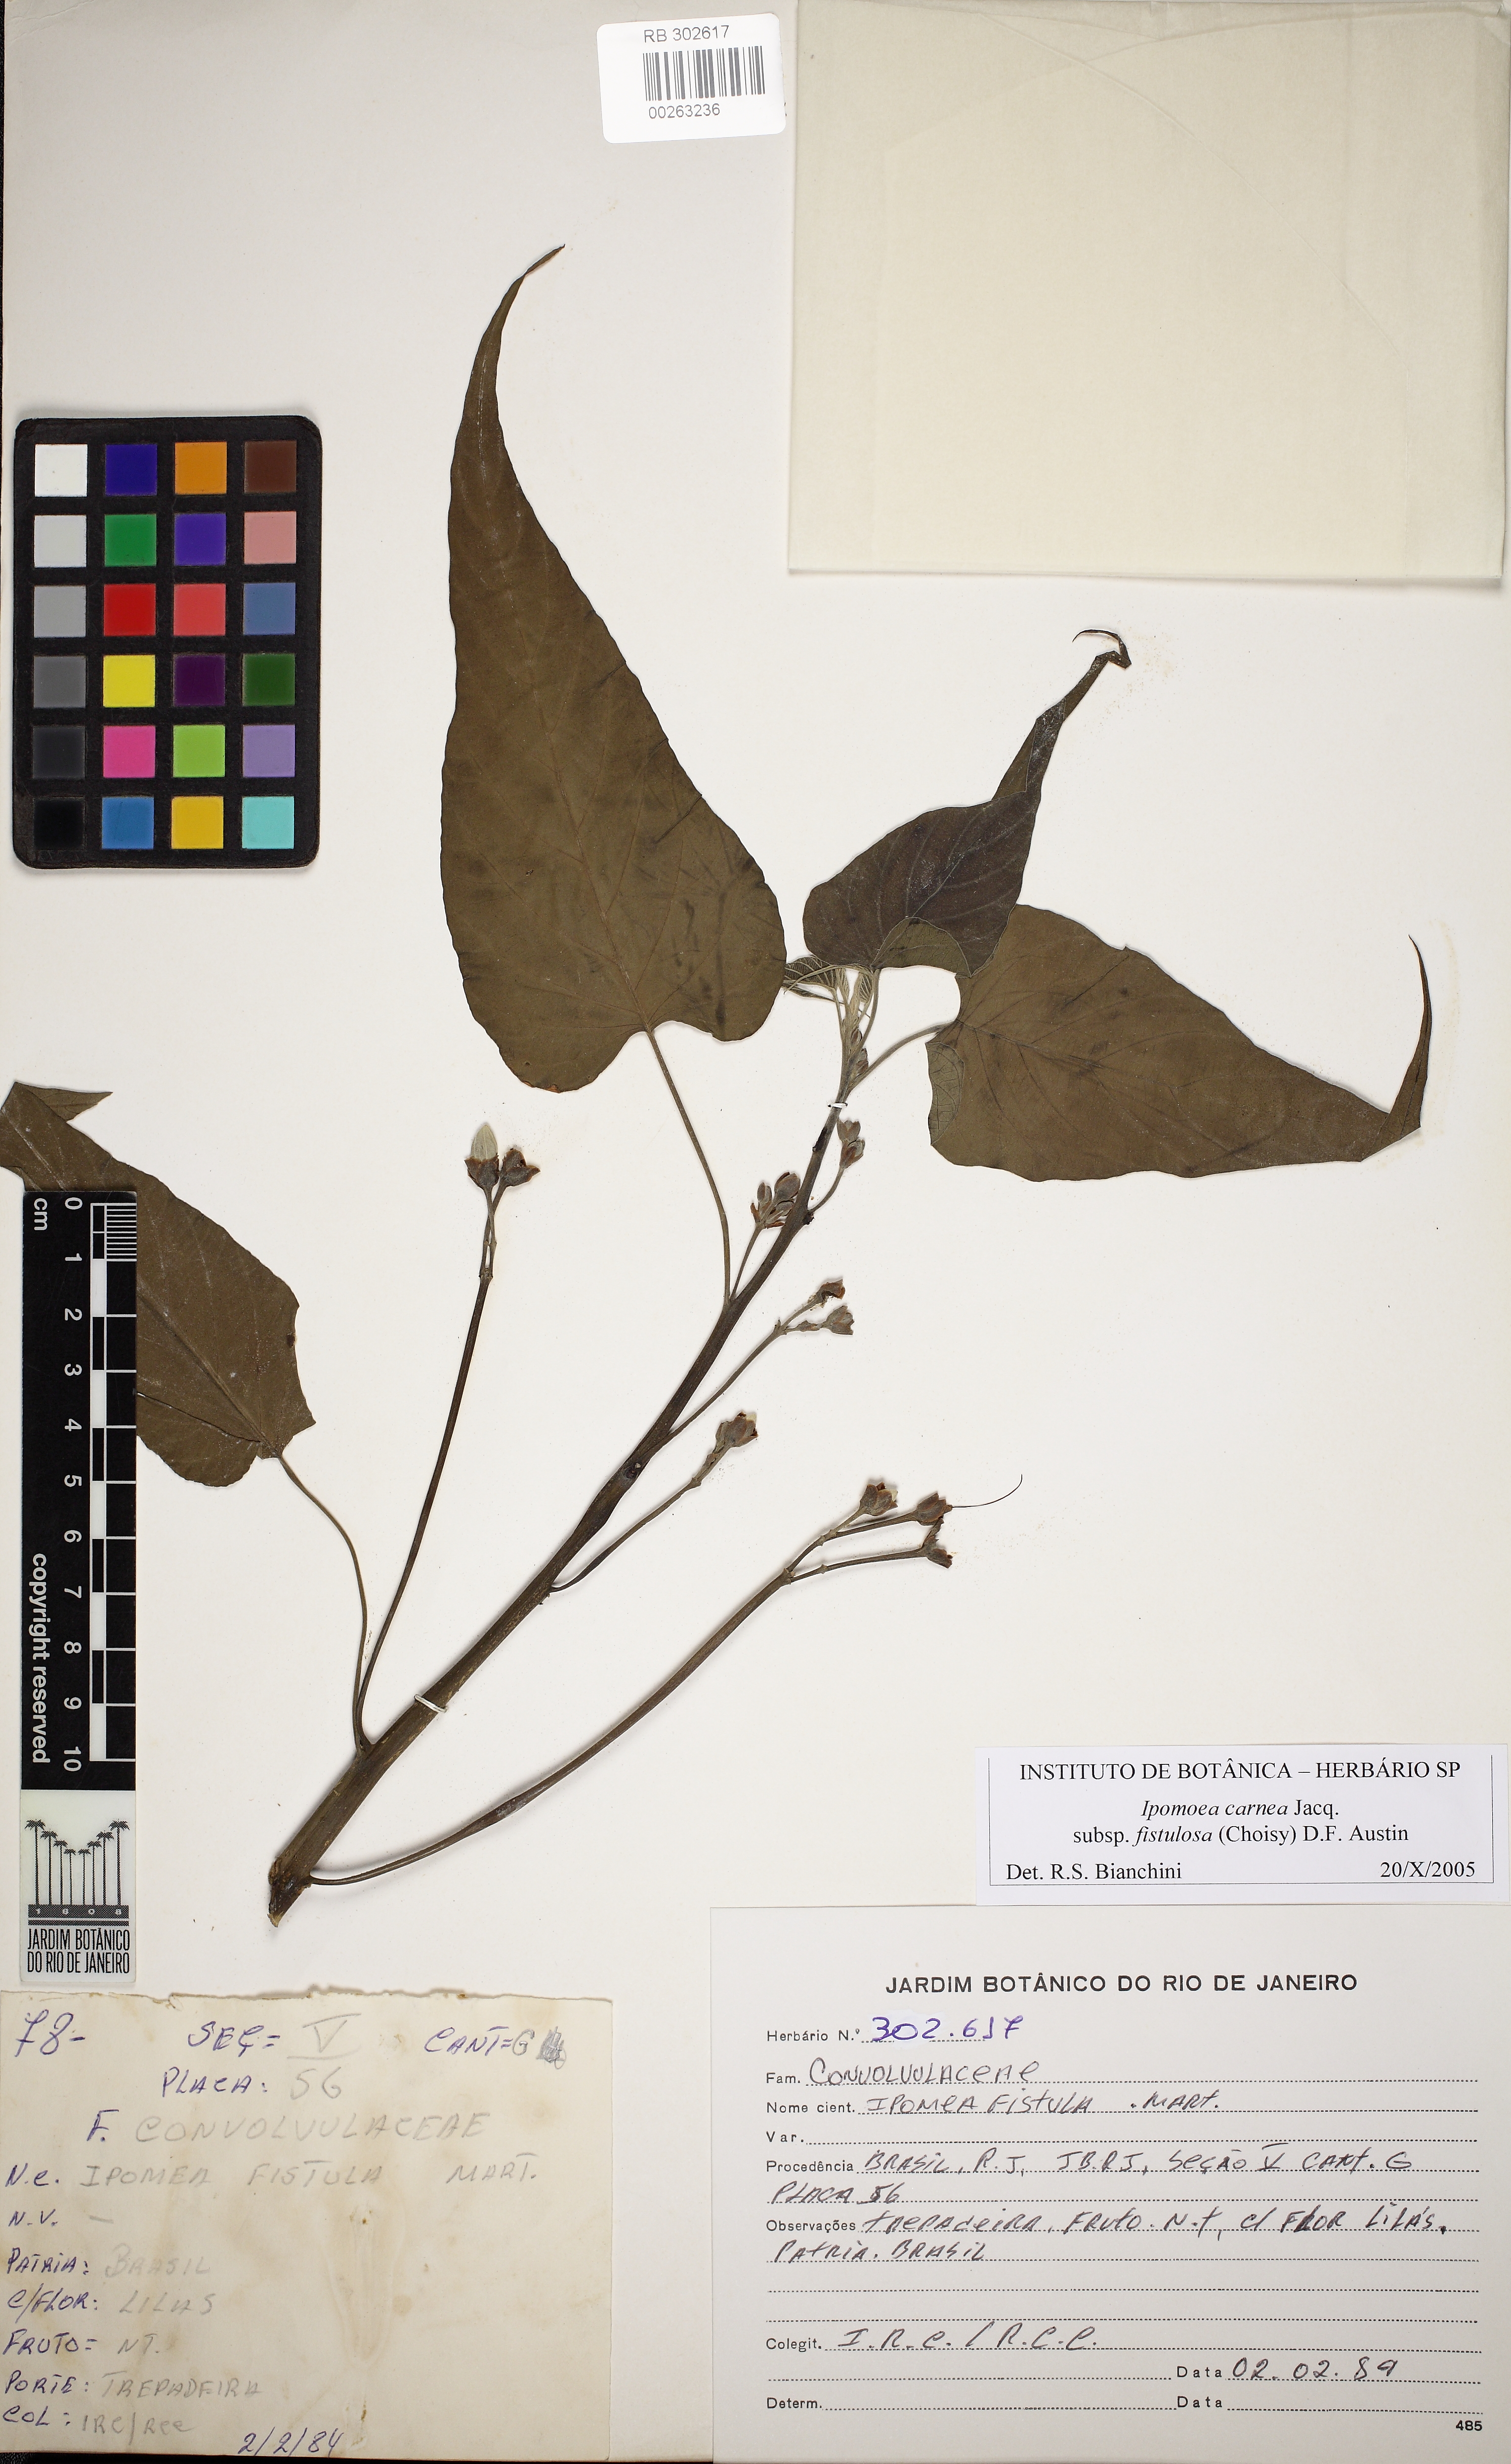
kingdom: Plantae
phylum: Tracheophyta
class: Magnoliopsida
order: Solanales
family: Convolvulaceae
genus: Ipomoea
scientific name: Ipomoea carnea
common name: Morning-glory
